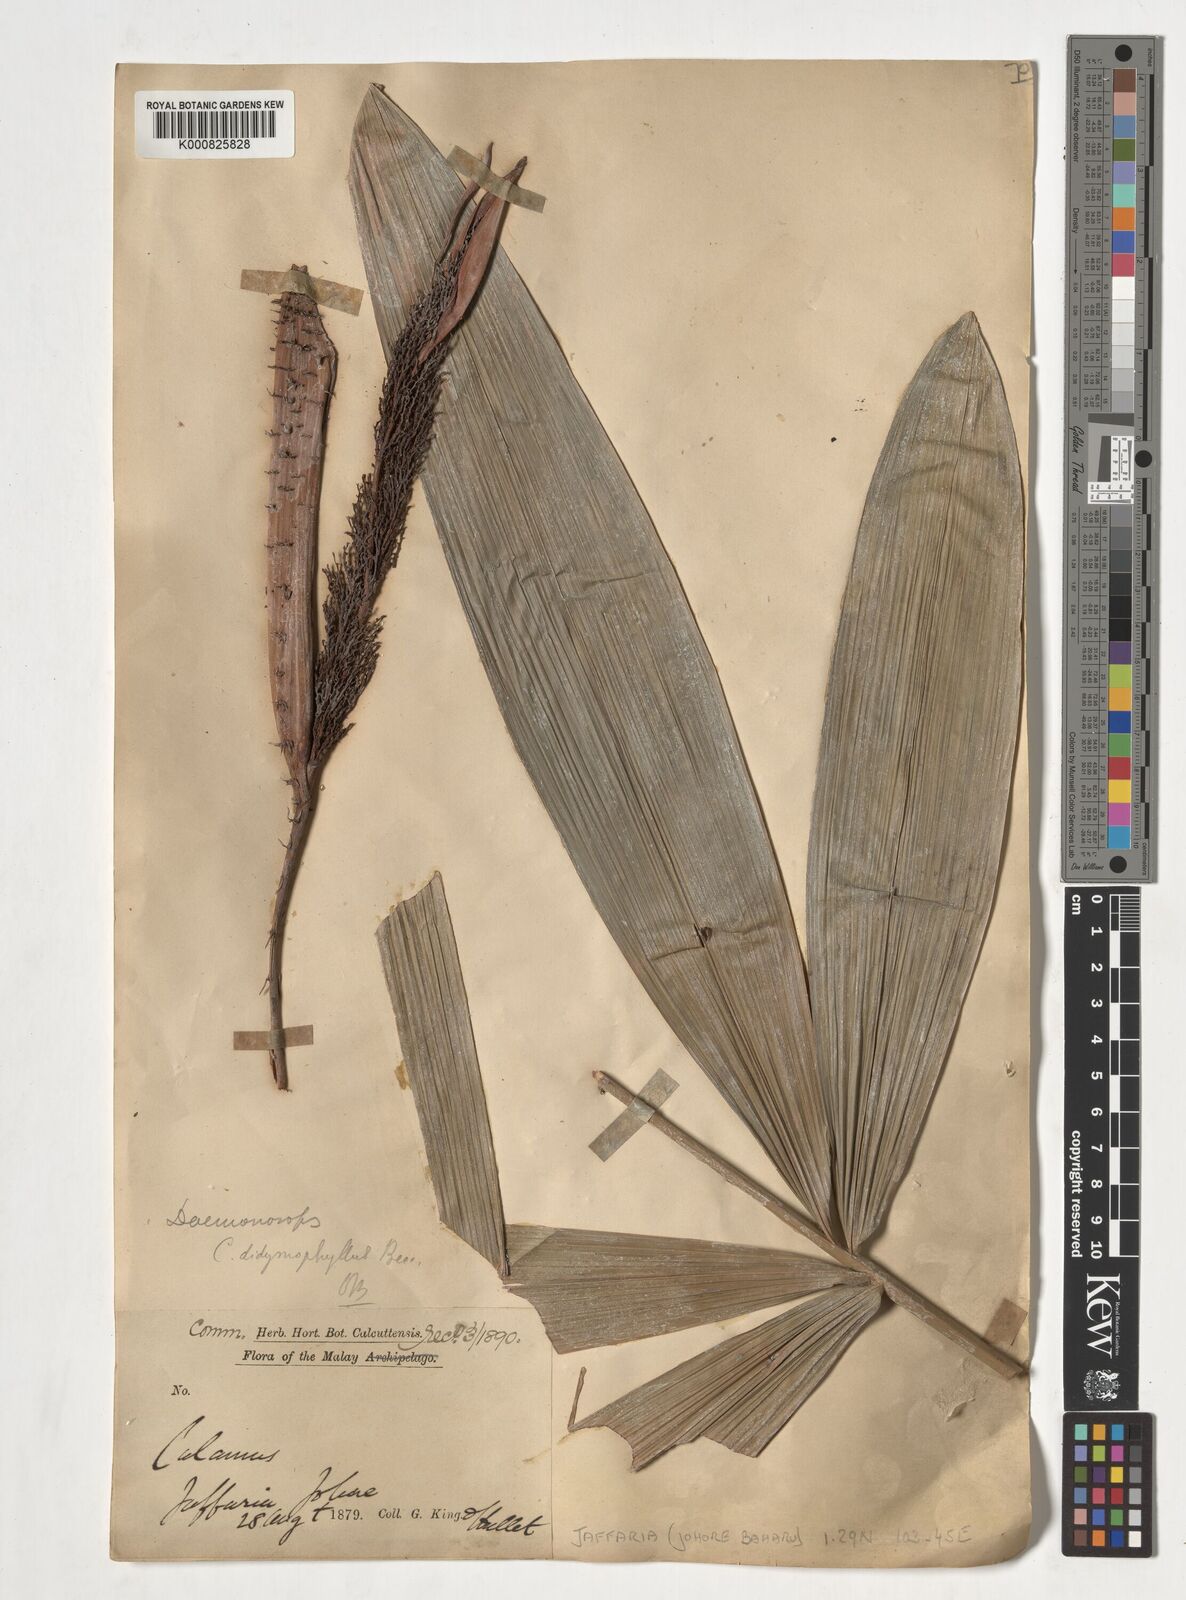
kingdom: Plantae
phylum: Tracheophyta
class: Liliopsida
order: Arecales
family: Arecaceae
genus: Calamus
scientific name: Calamus gracilipes
